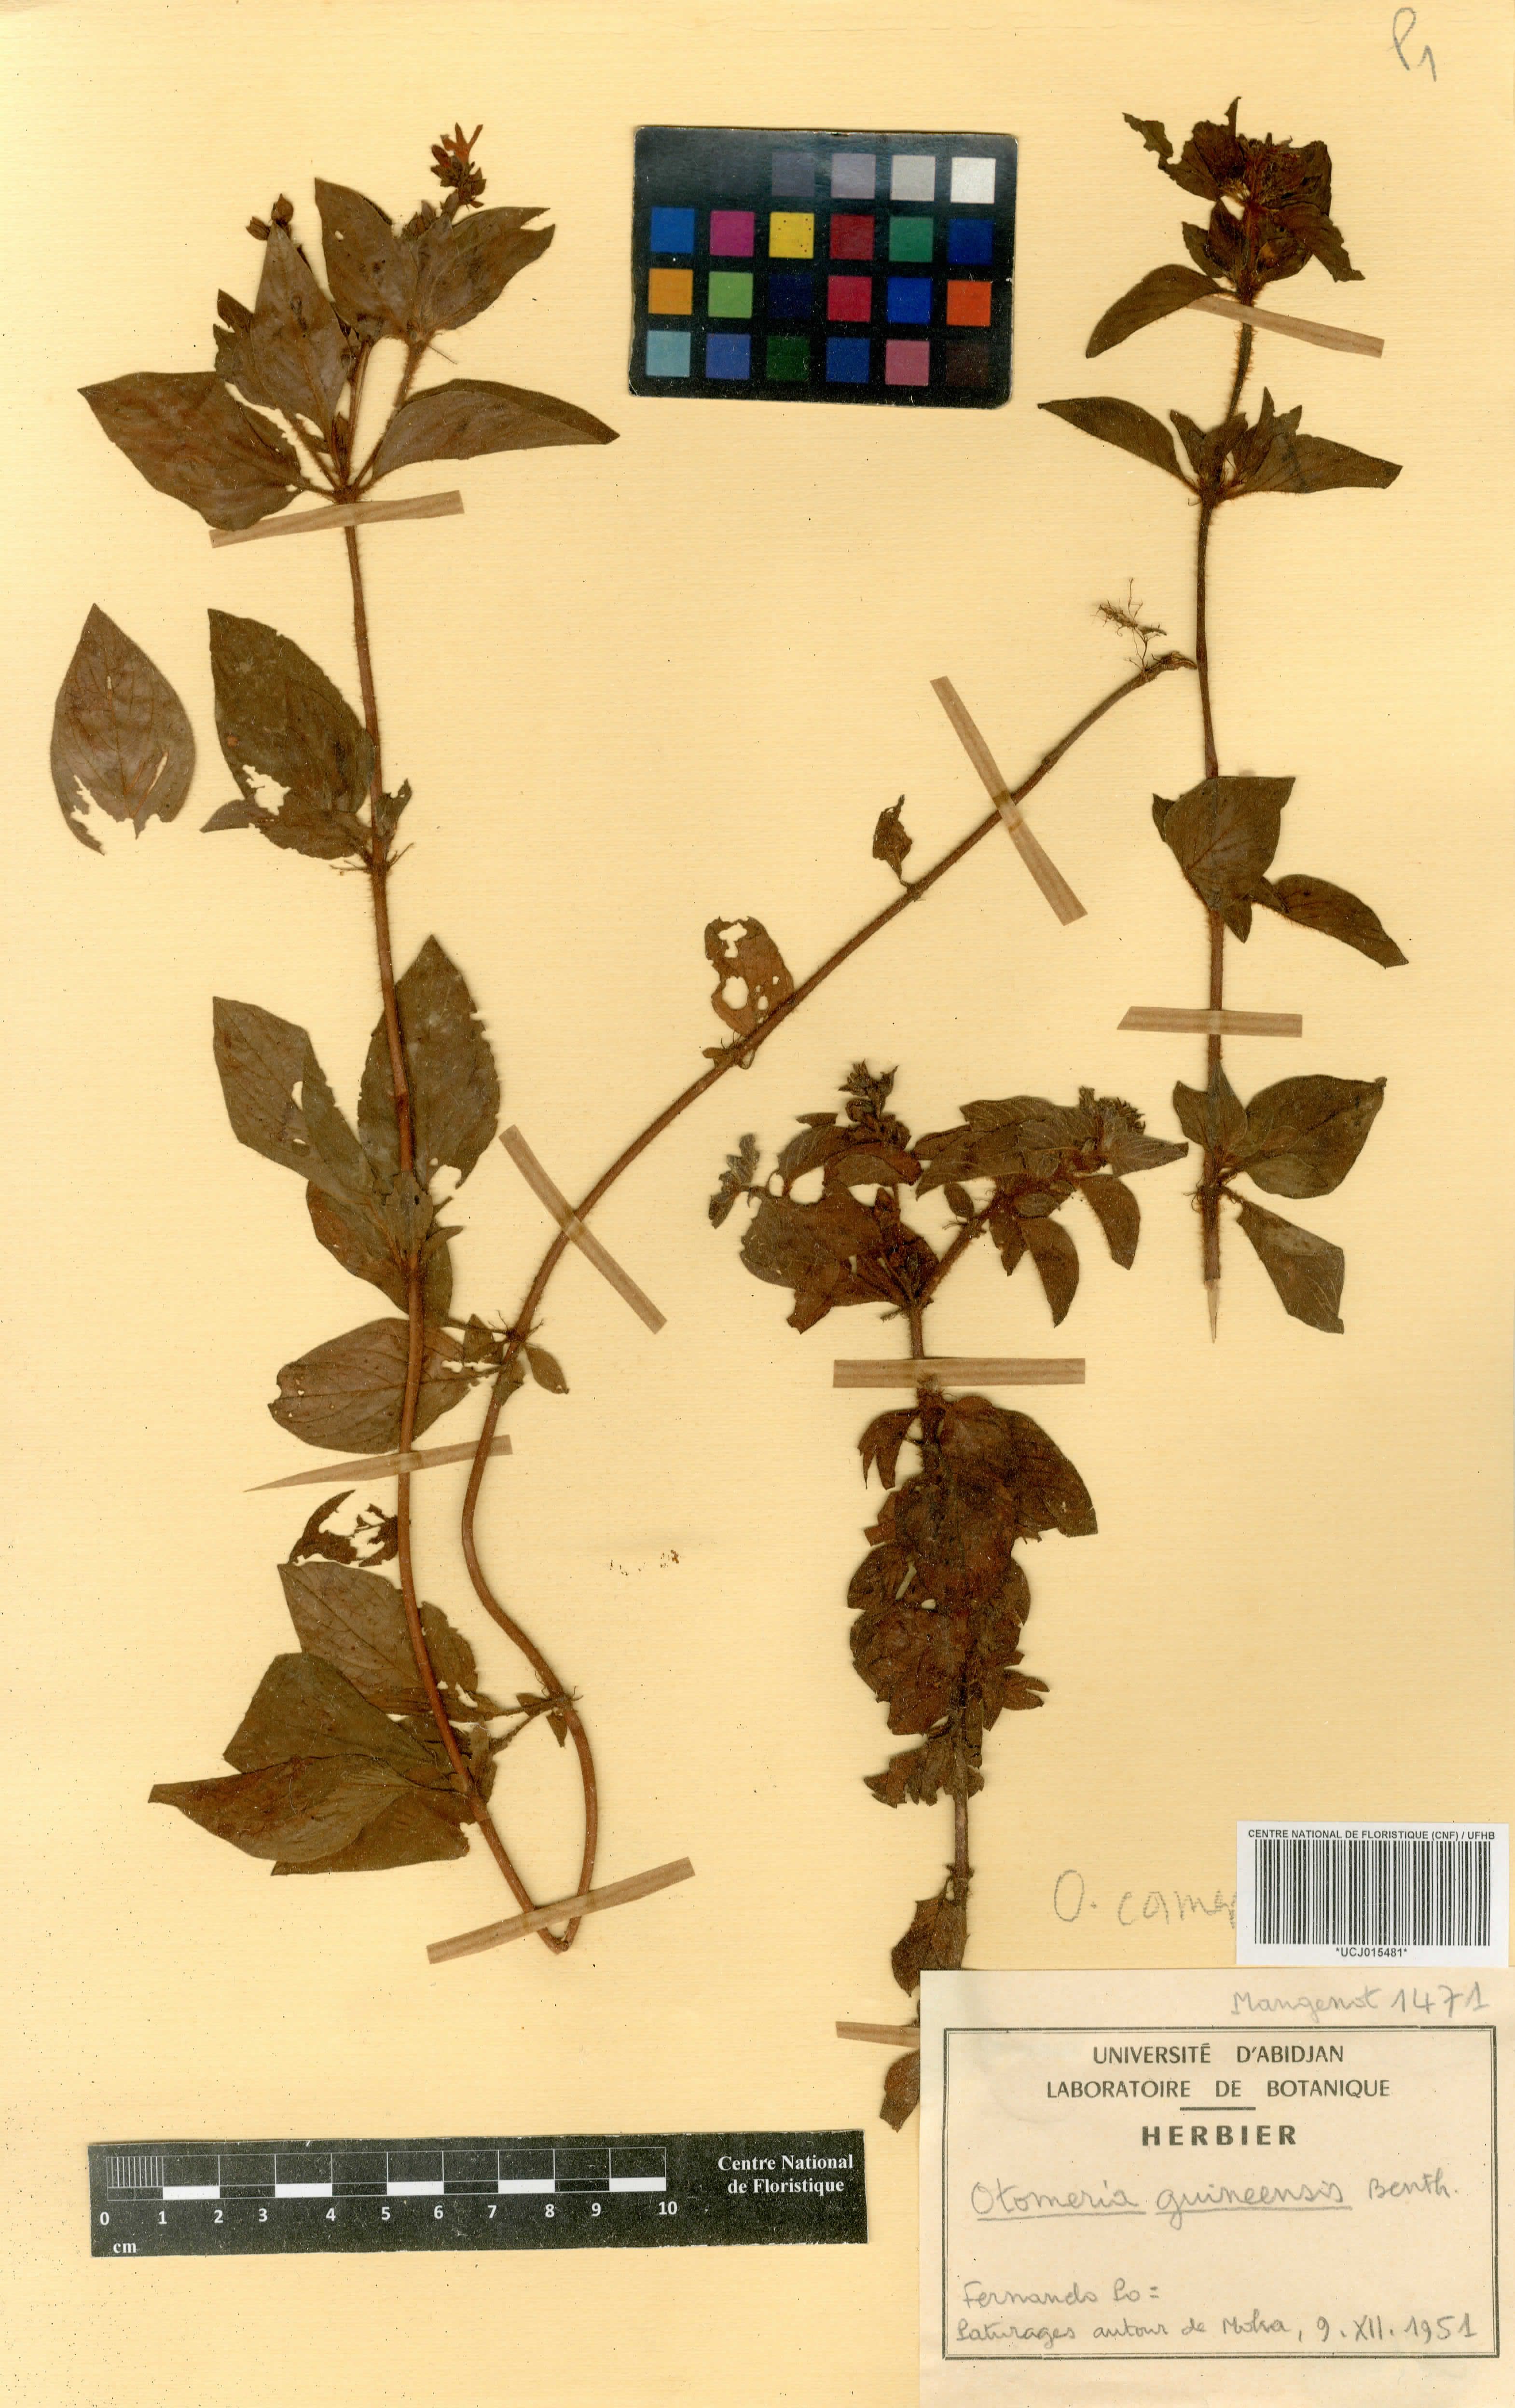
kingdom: Plantae
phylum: Tracheophyta
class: Magnoliopsida
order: Gentianales
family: Rubiaceae
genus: Otomeria
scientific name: Otomeria guineensis
